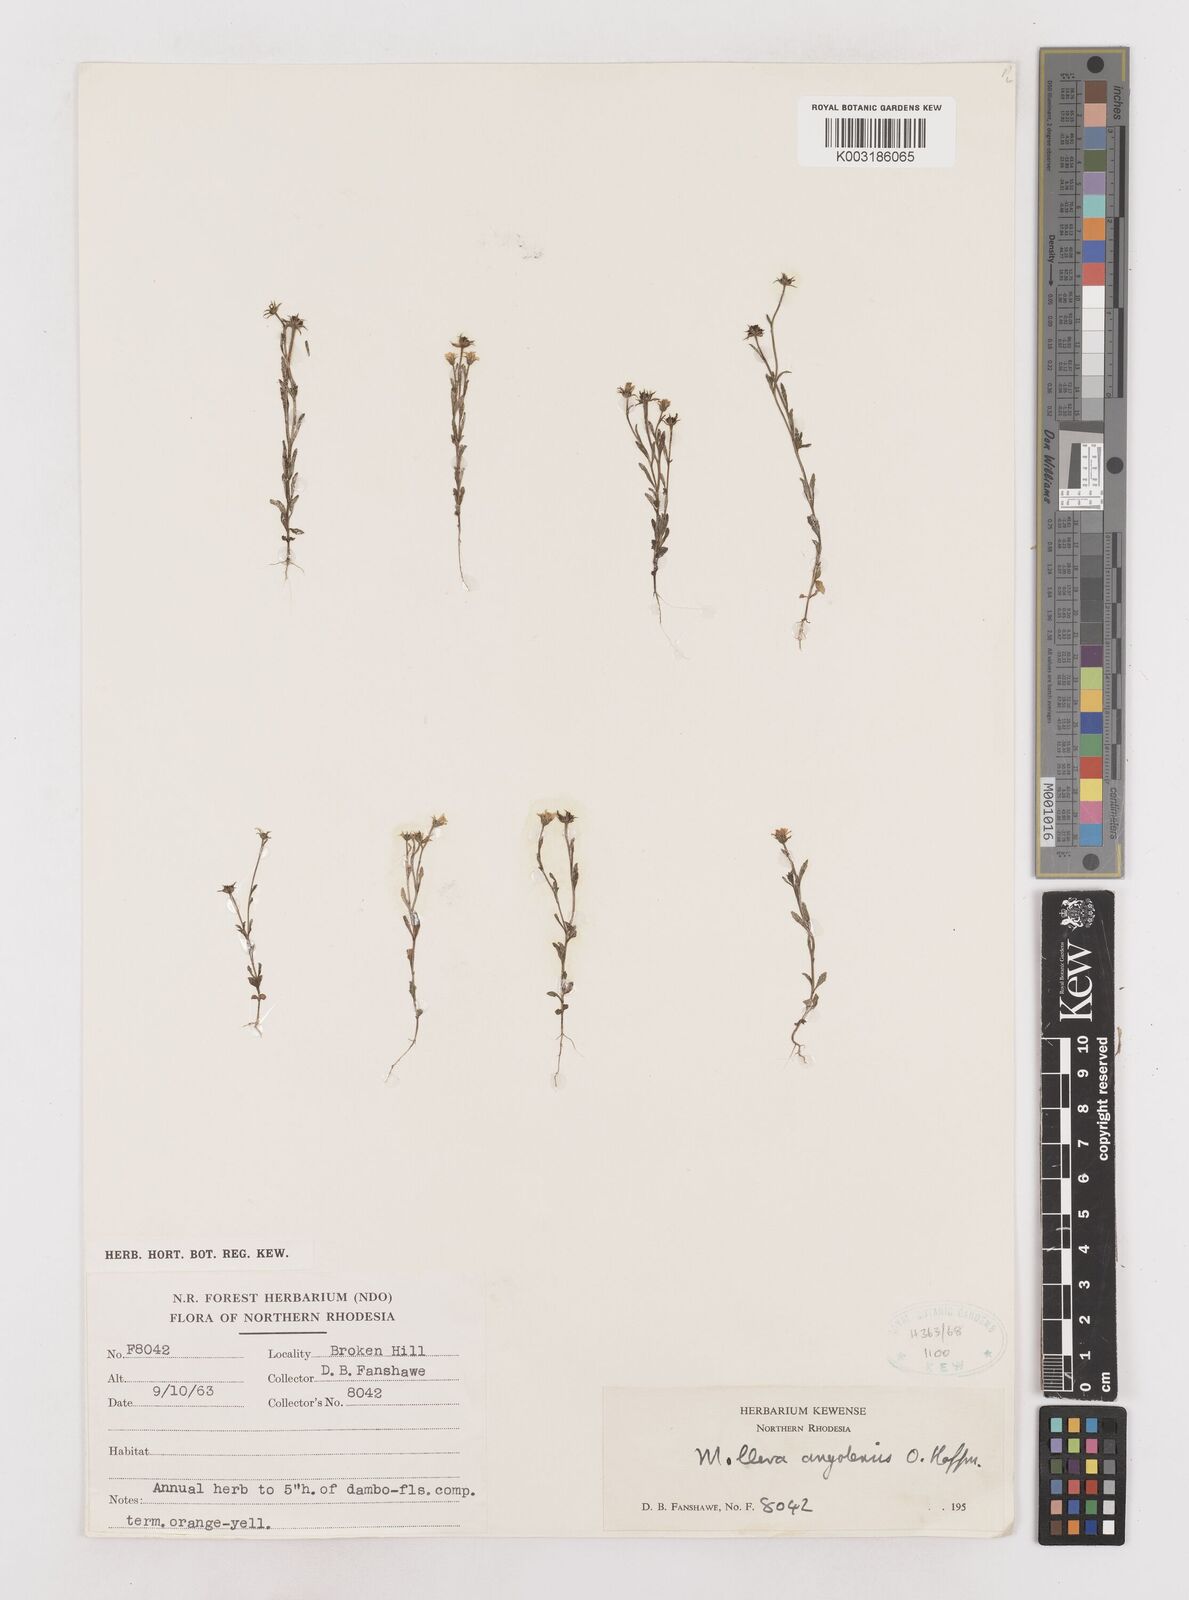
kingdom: Plantae
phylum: Tracheophyta
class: Magnoliopsida
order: Asterales
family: Asteraceae
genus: Calostephane
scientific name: Calostephane angolensis
